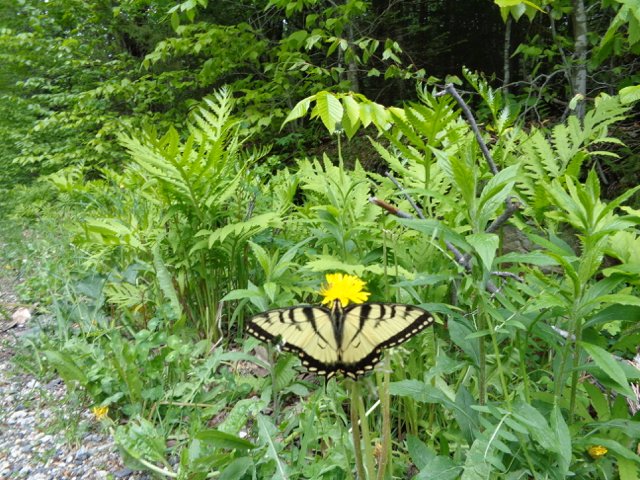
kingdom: Animalia
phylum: Arthropoda
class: Insecta
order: Lepidoptera
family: Papilionidae
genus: Pterourus
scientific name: Pterourus canadensis
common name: Canadian Tiger Swallowtail
